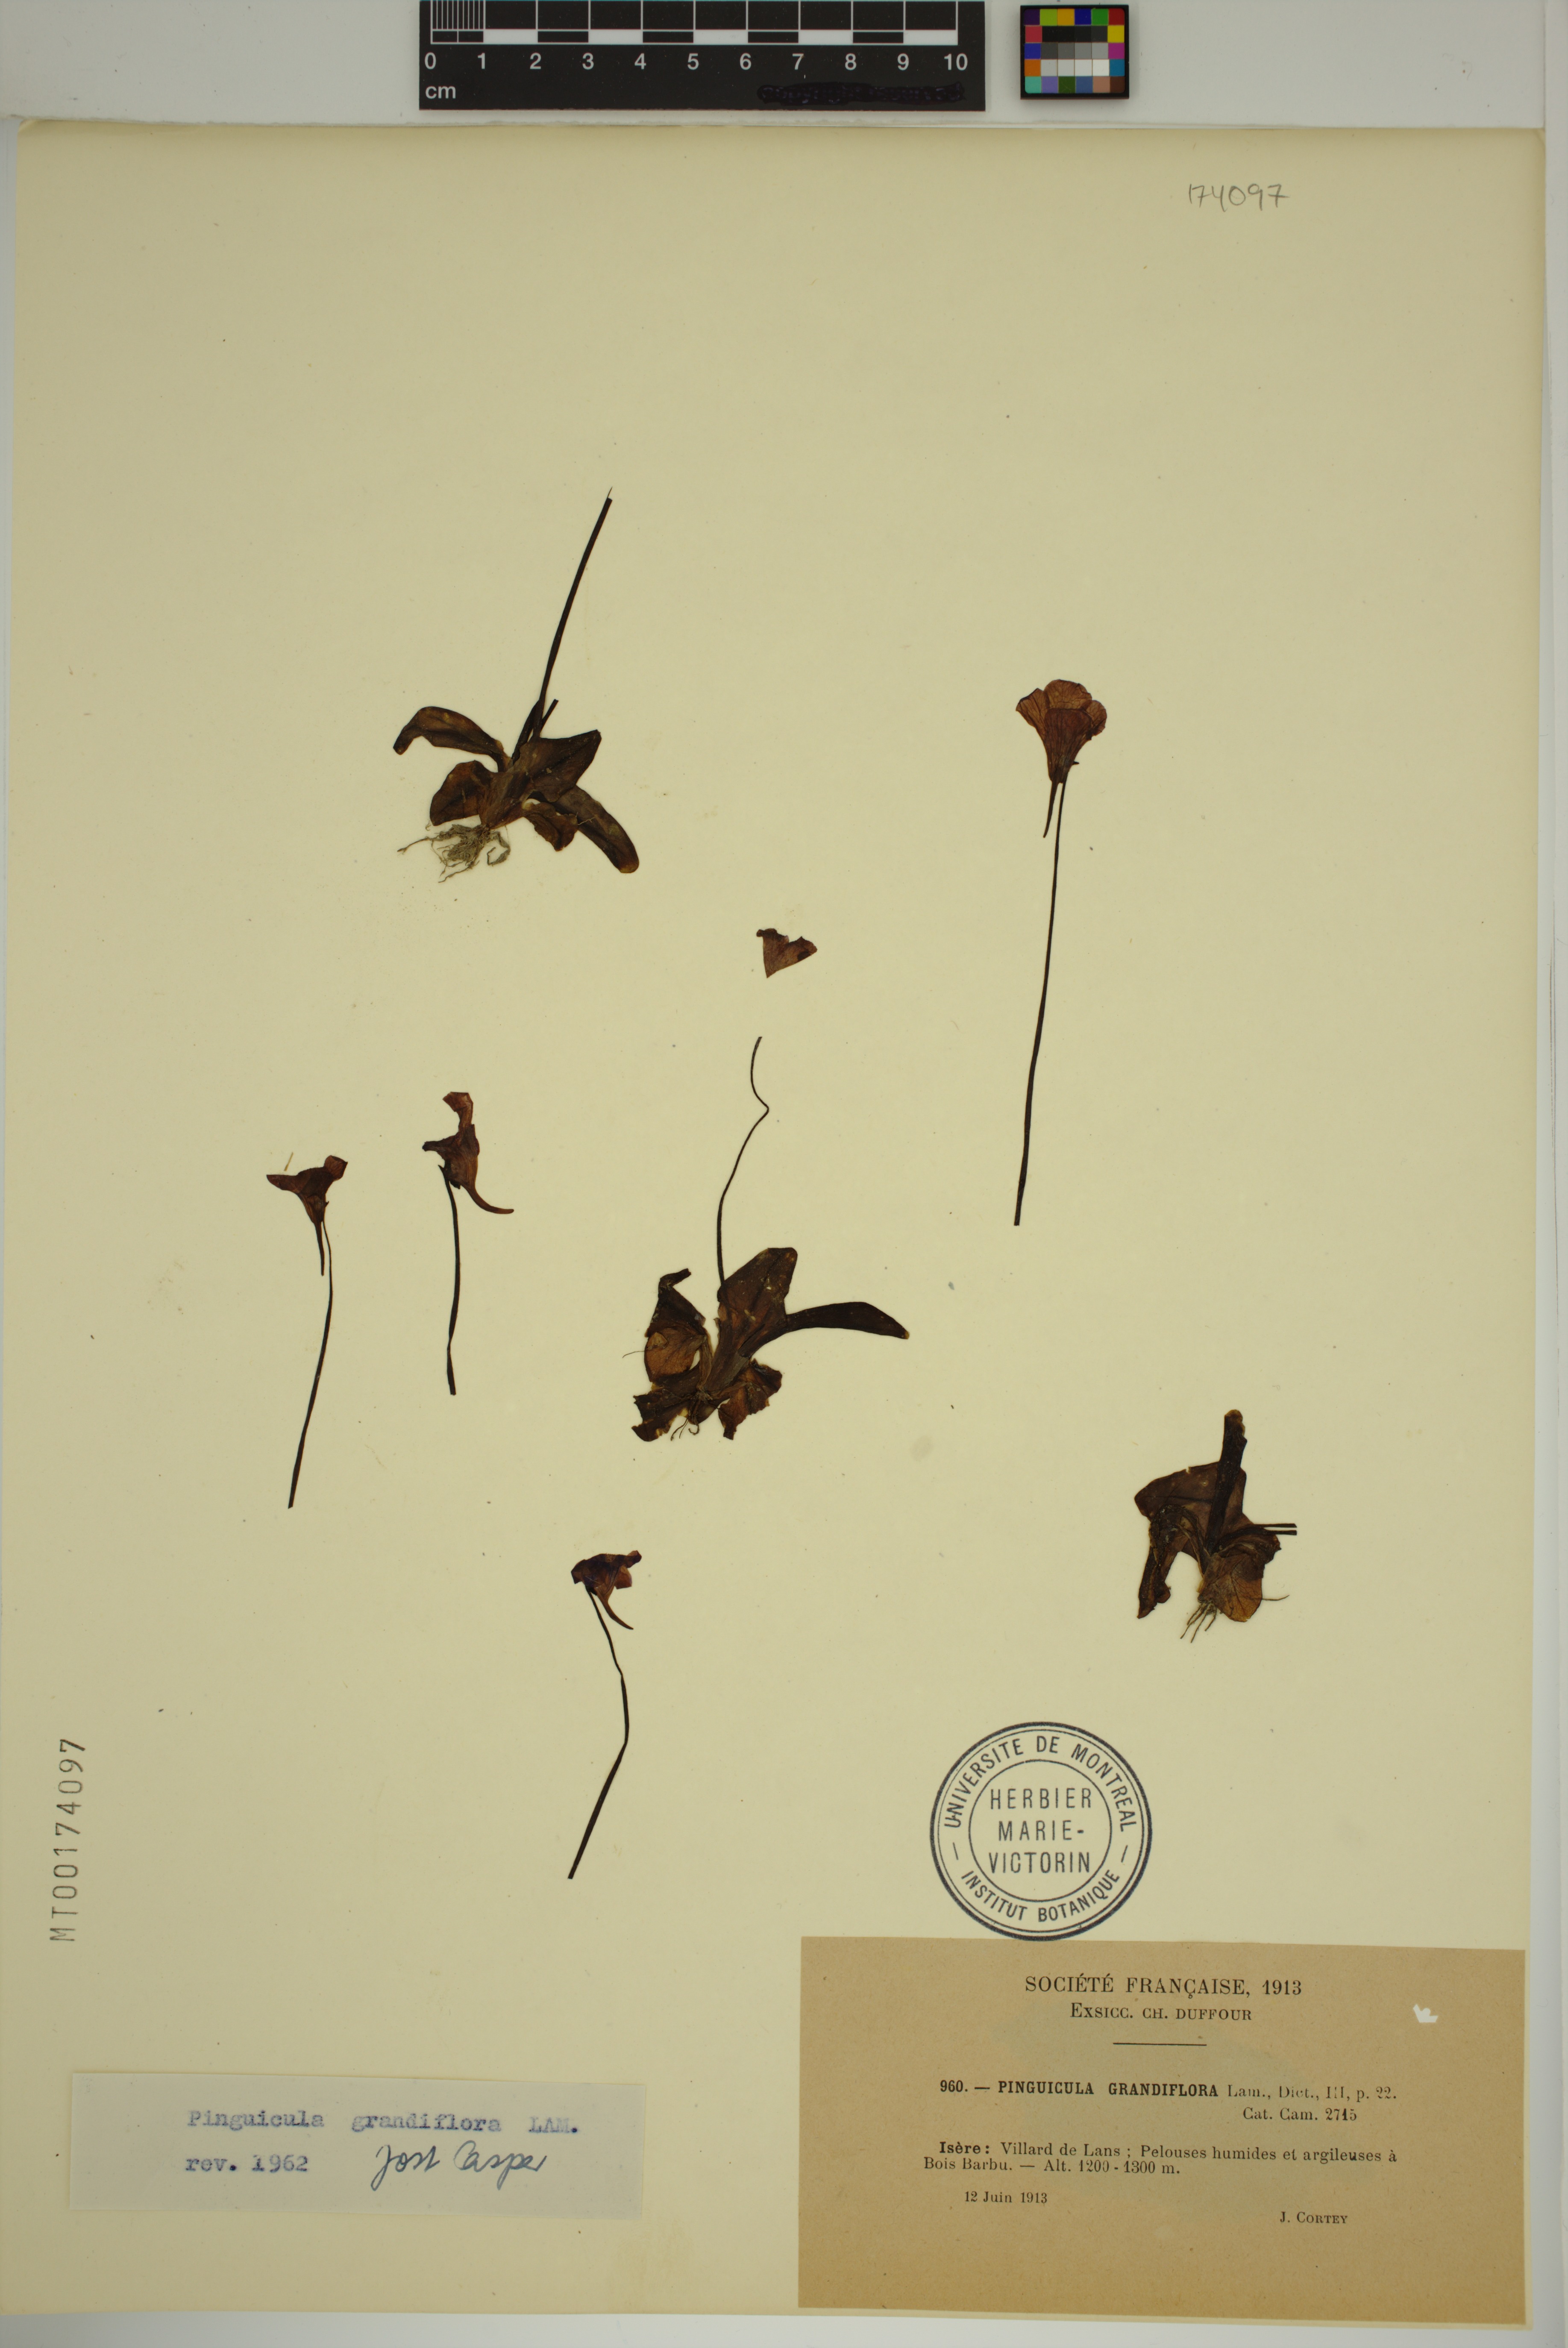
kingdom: Plantae
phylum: Tracheophyta
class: Magnoliopsida
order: Lamiales
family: Lentibulariaceae
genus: Pinguicula
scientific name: Pinguicula grandiflora
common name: Large-flowered butterwort
